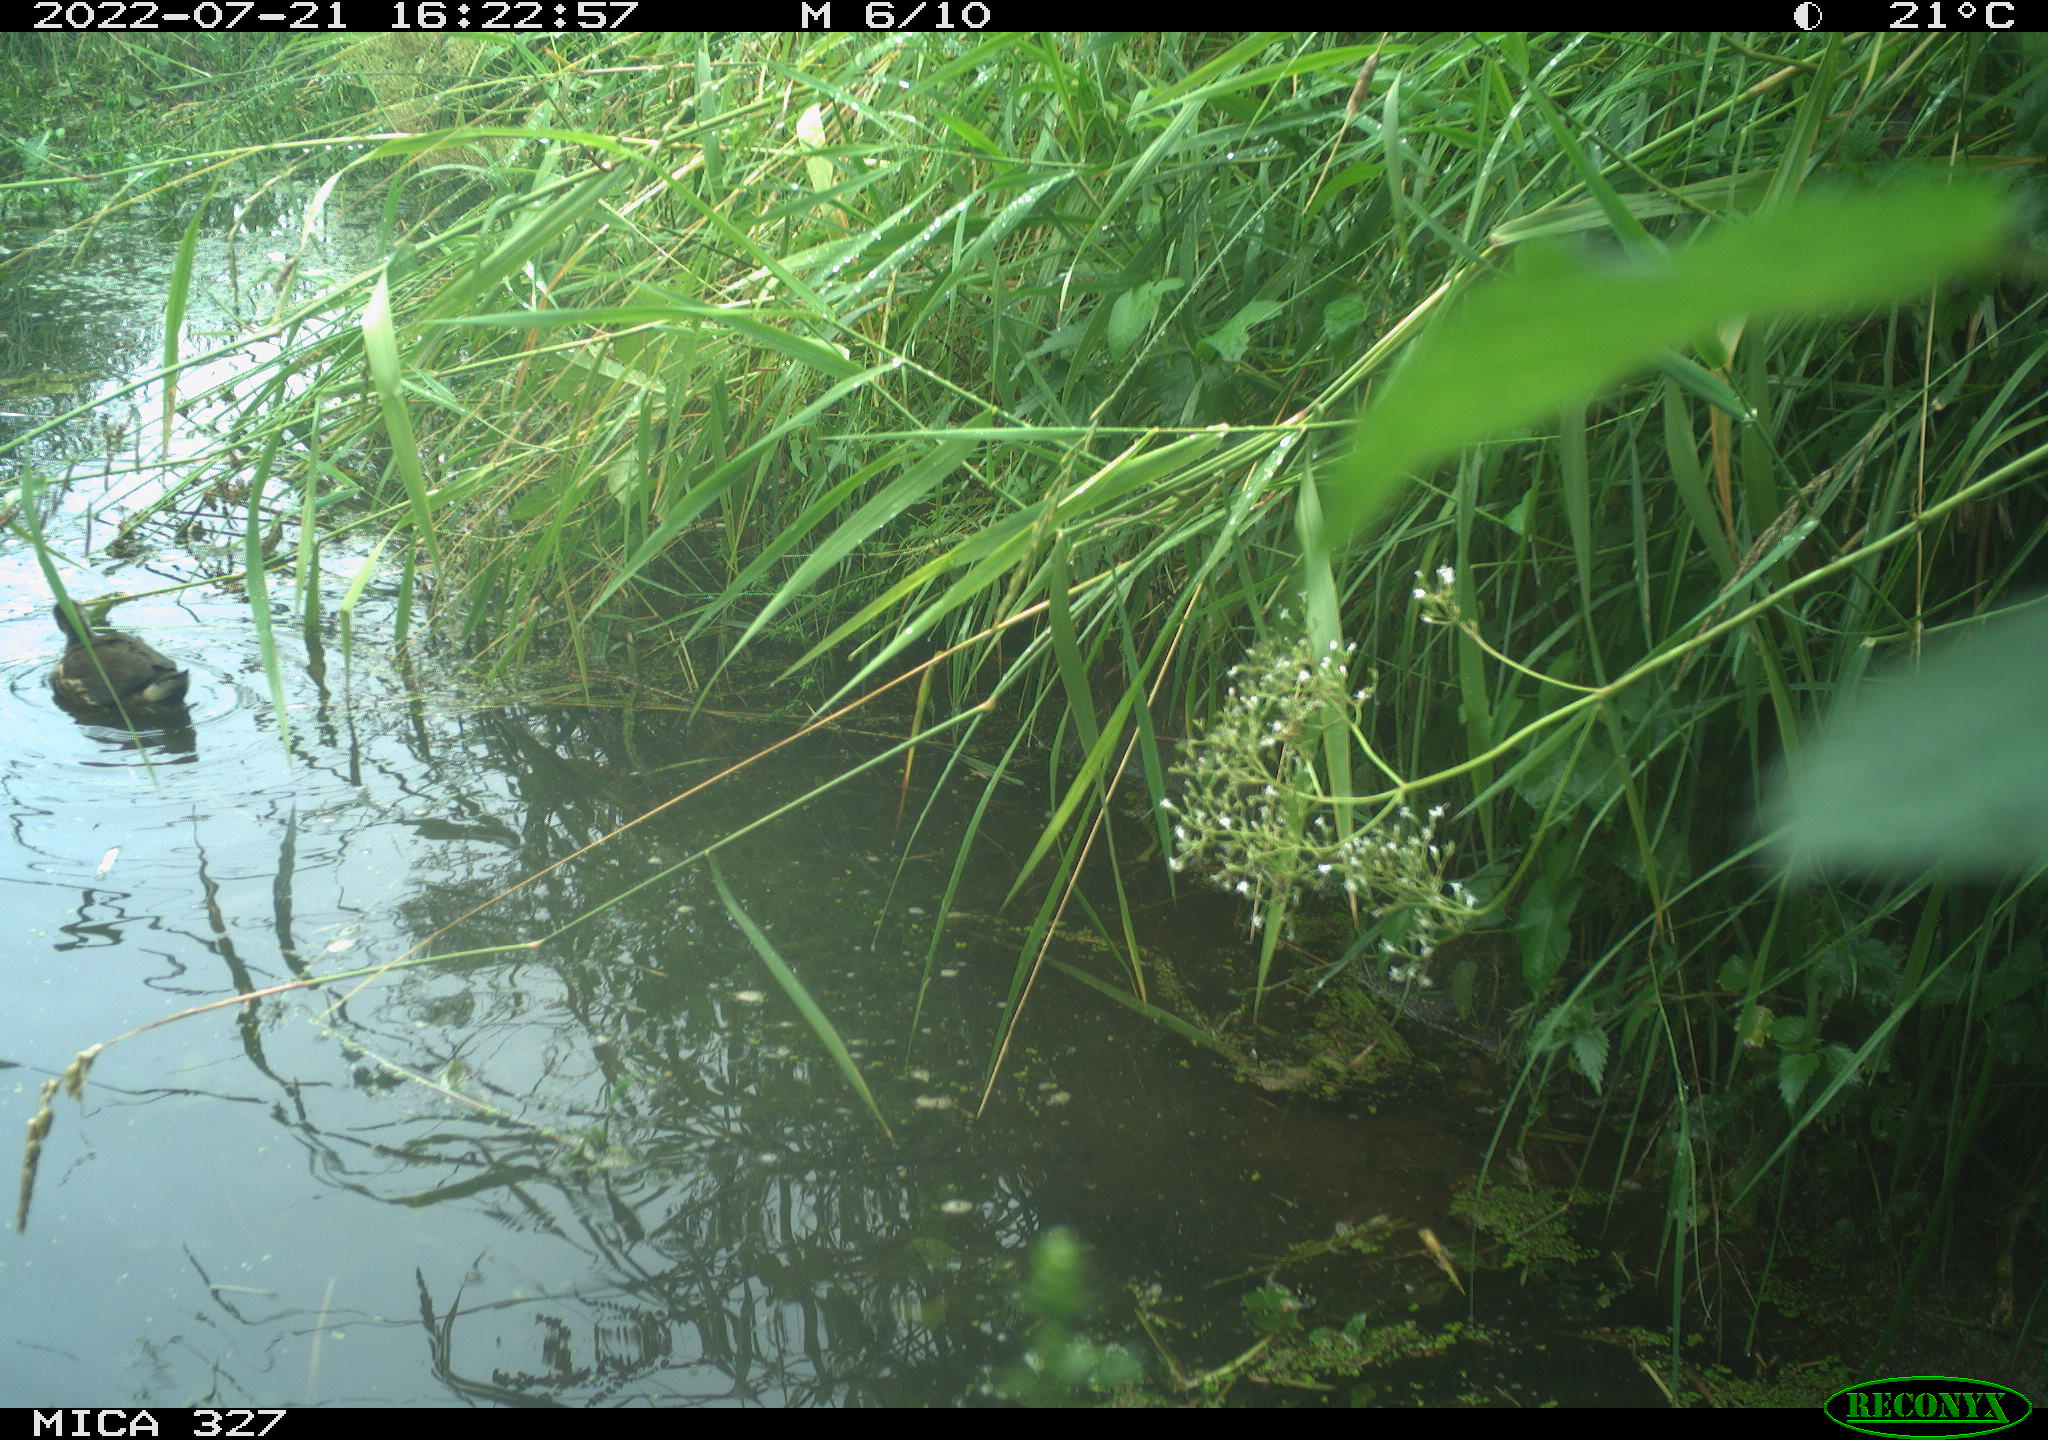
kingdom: Animalia
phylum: Chordata
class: Aves
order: Gruiformes
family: Rallidae
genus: Gallinula
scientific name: Gallinula chloropus
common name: Common moorhen
